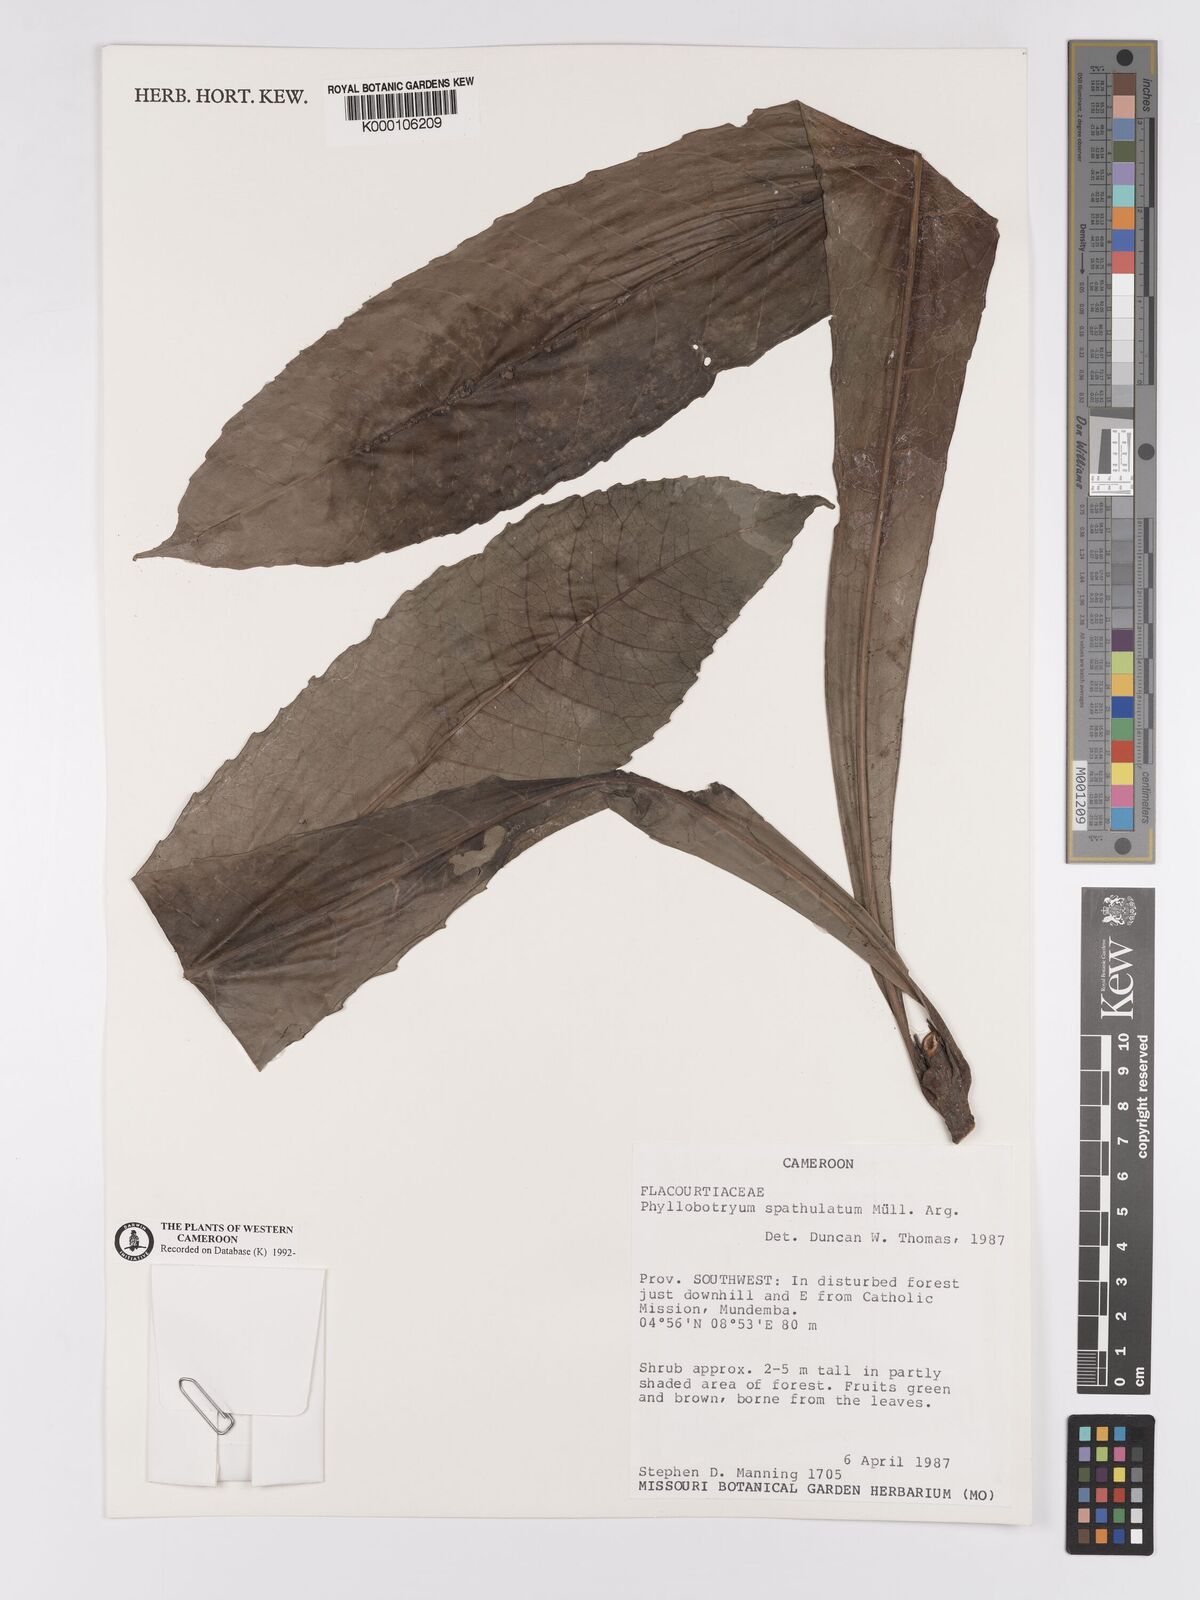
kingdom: Plantae
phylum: Tracheophyta
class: Magnoliopsida
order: Malpighiales
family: Salicaceae
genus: Phyllobotryon
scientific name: Phyllobotryon
